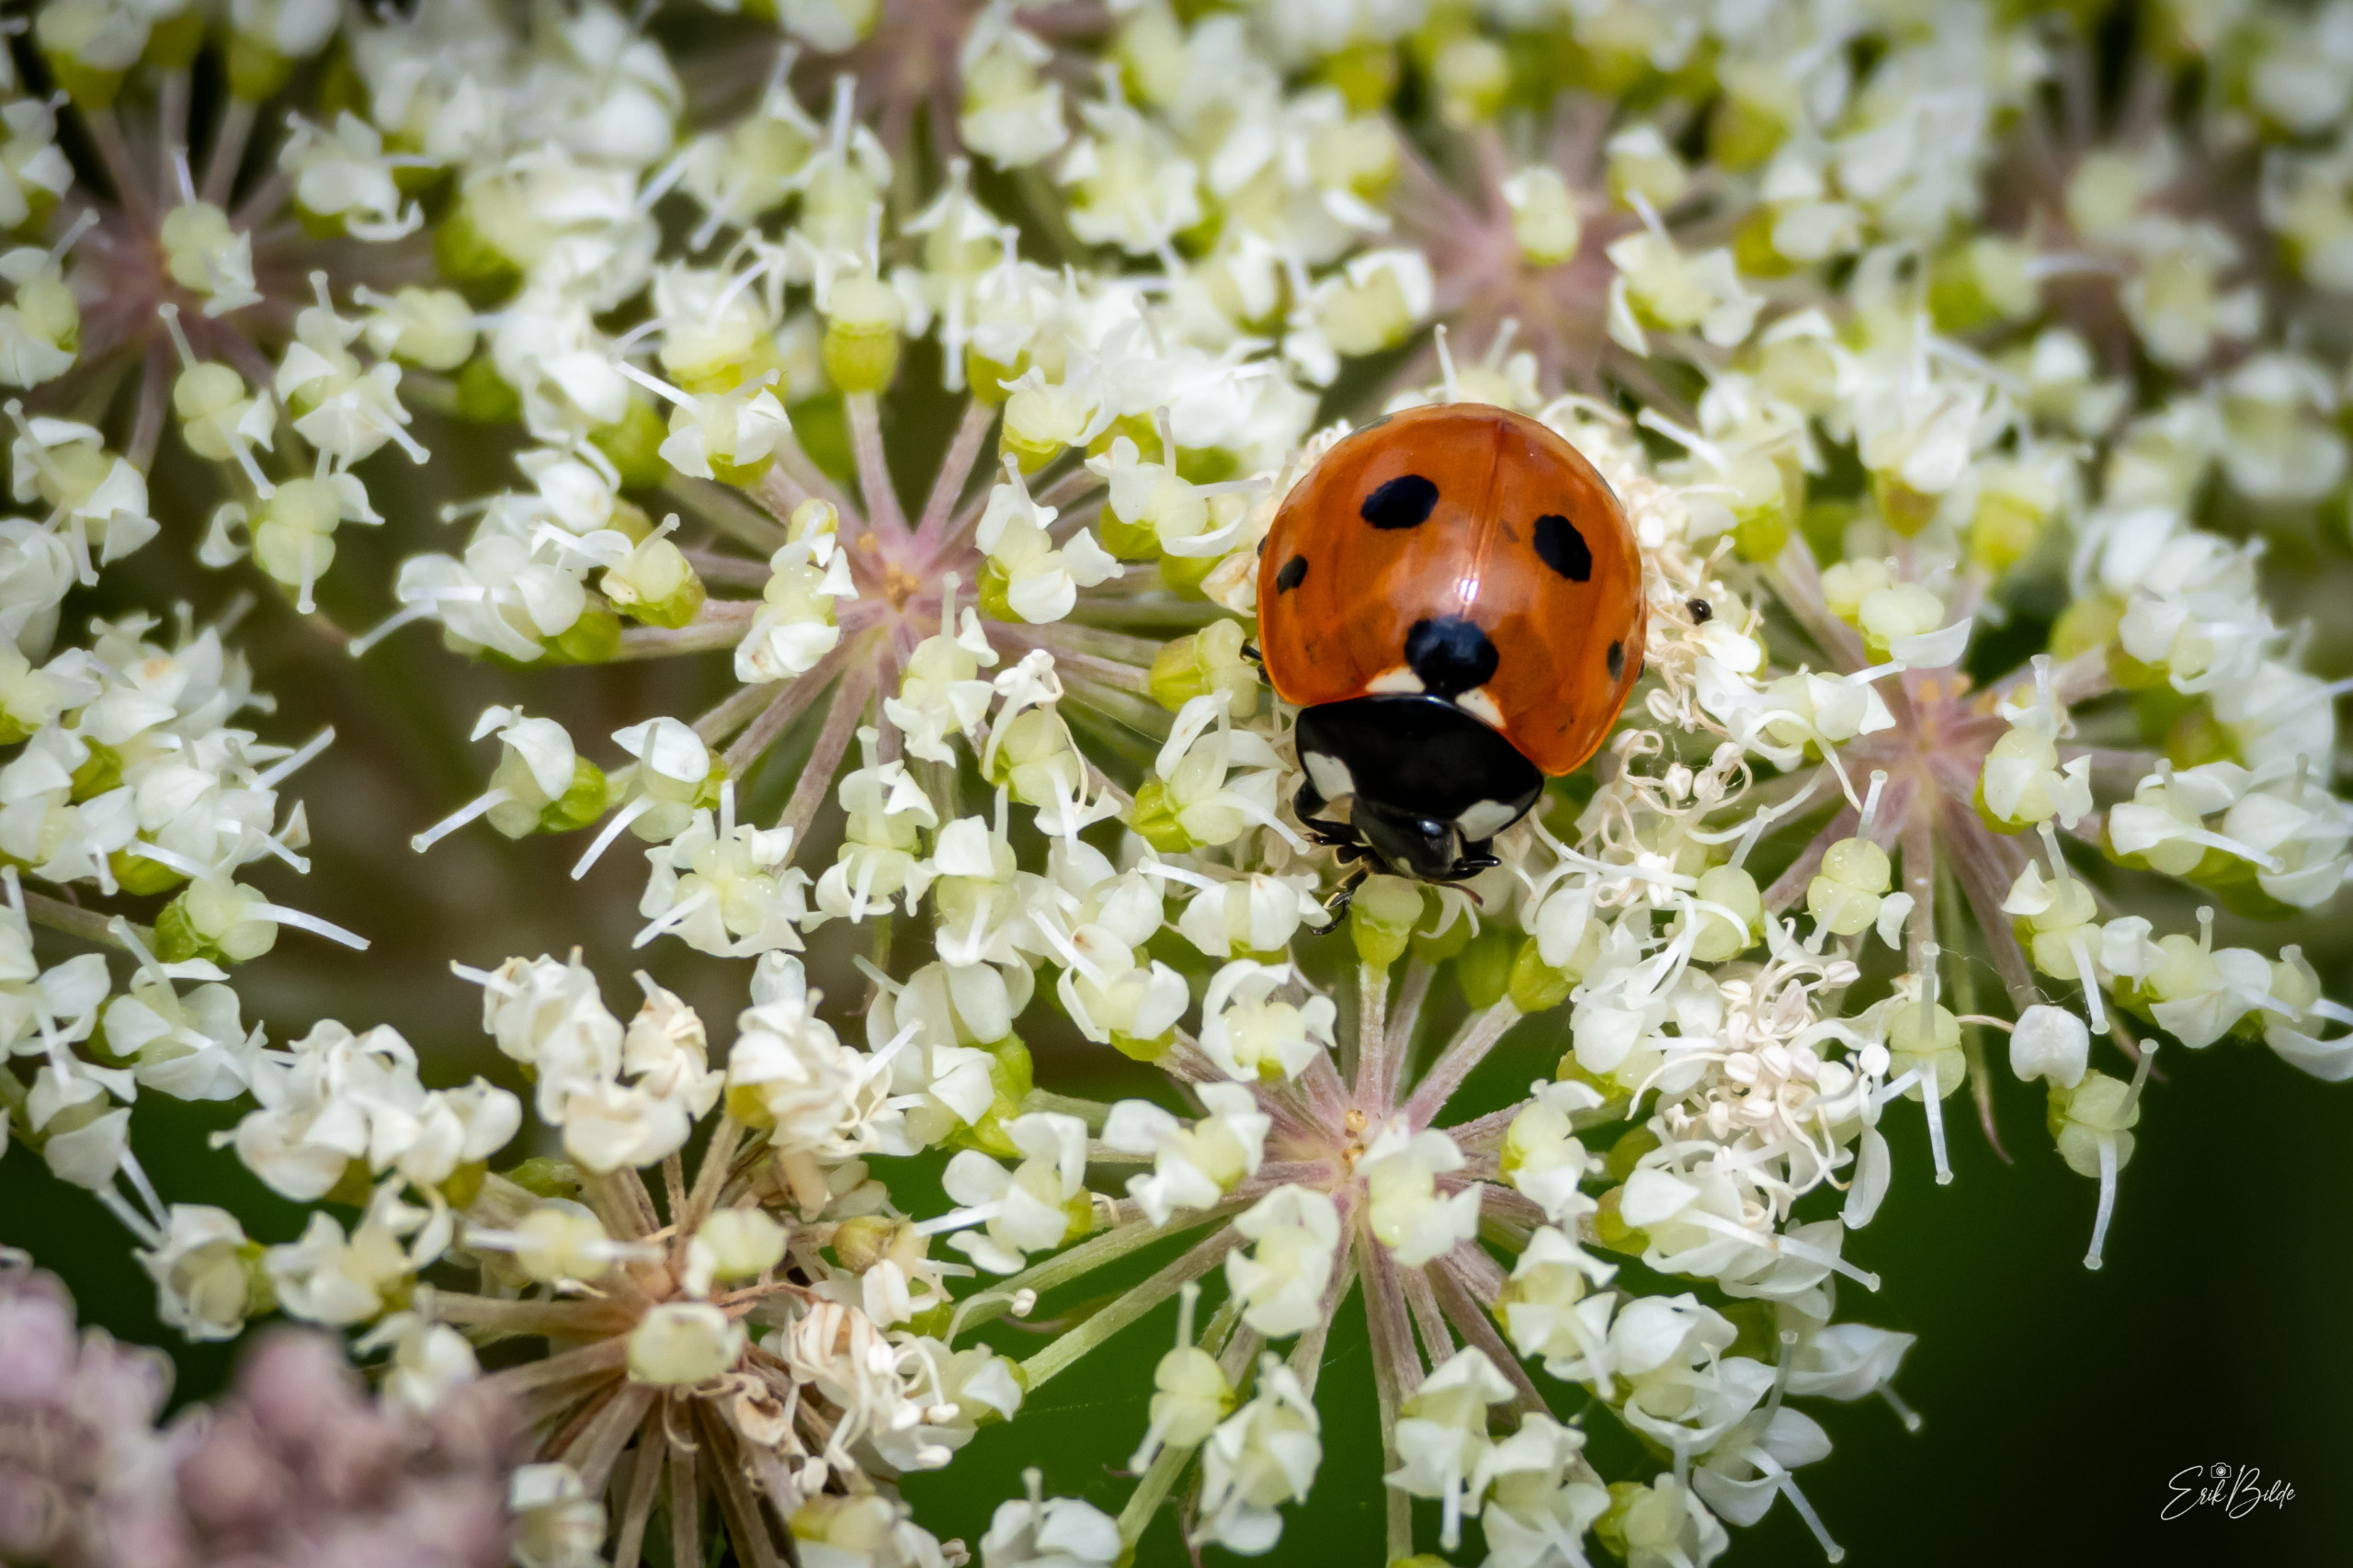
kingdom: Animalia
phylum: Arthropoda
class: Insecta
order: Coleoptera
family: Coccinellidae
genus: Coccinella
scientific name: Coccinella septempunctata
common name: Syvplettet mariehøne
